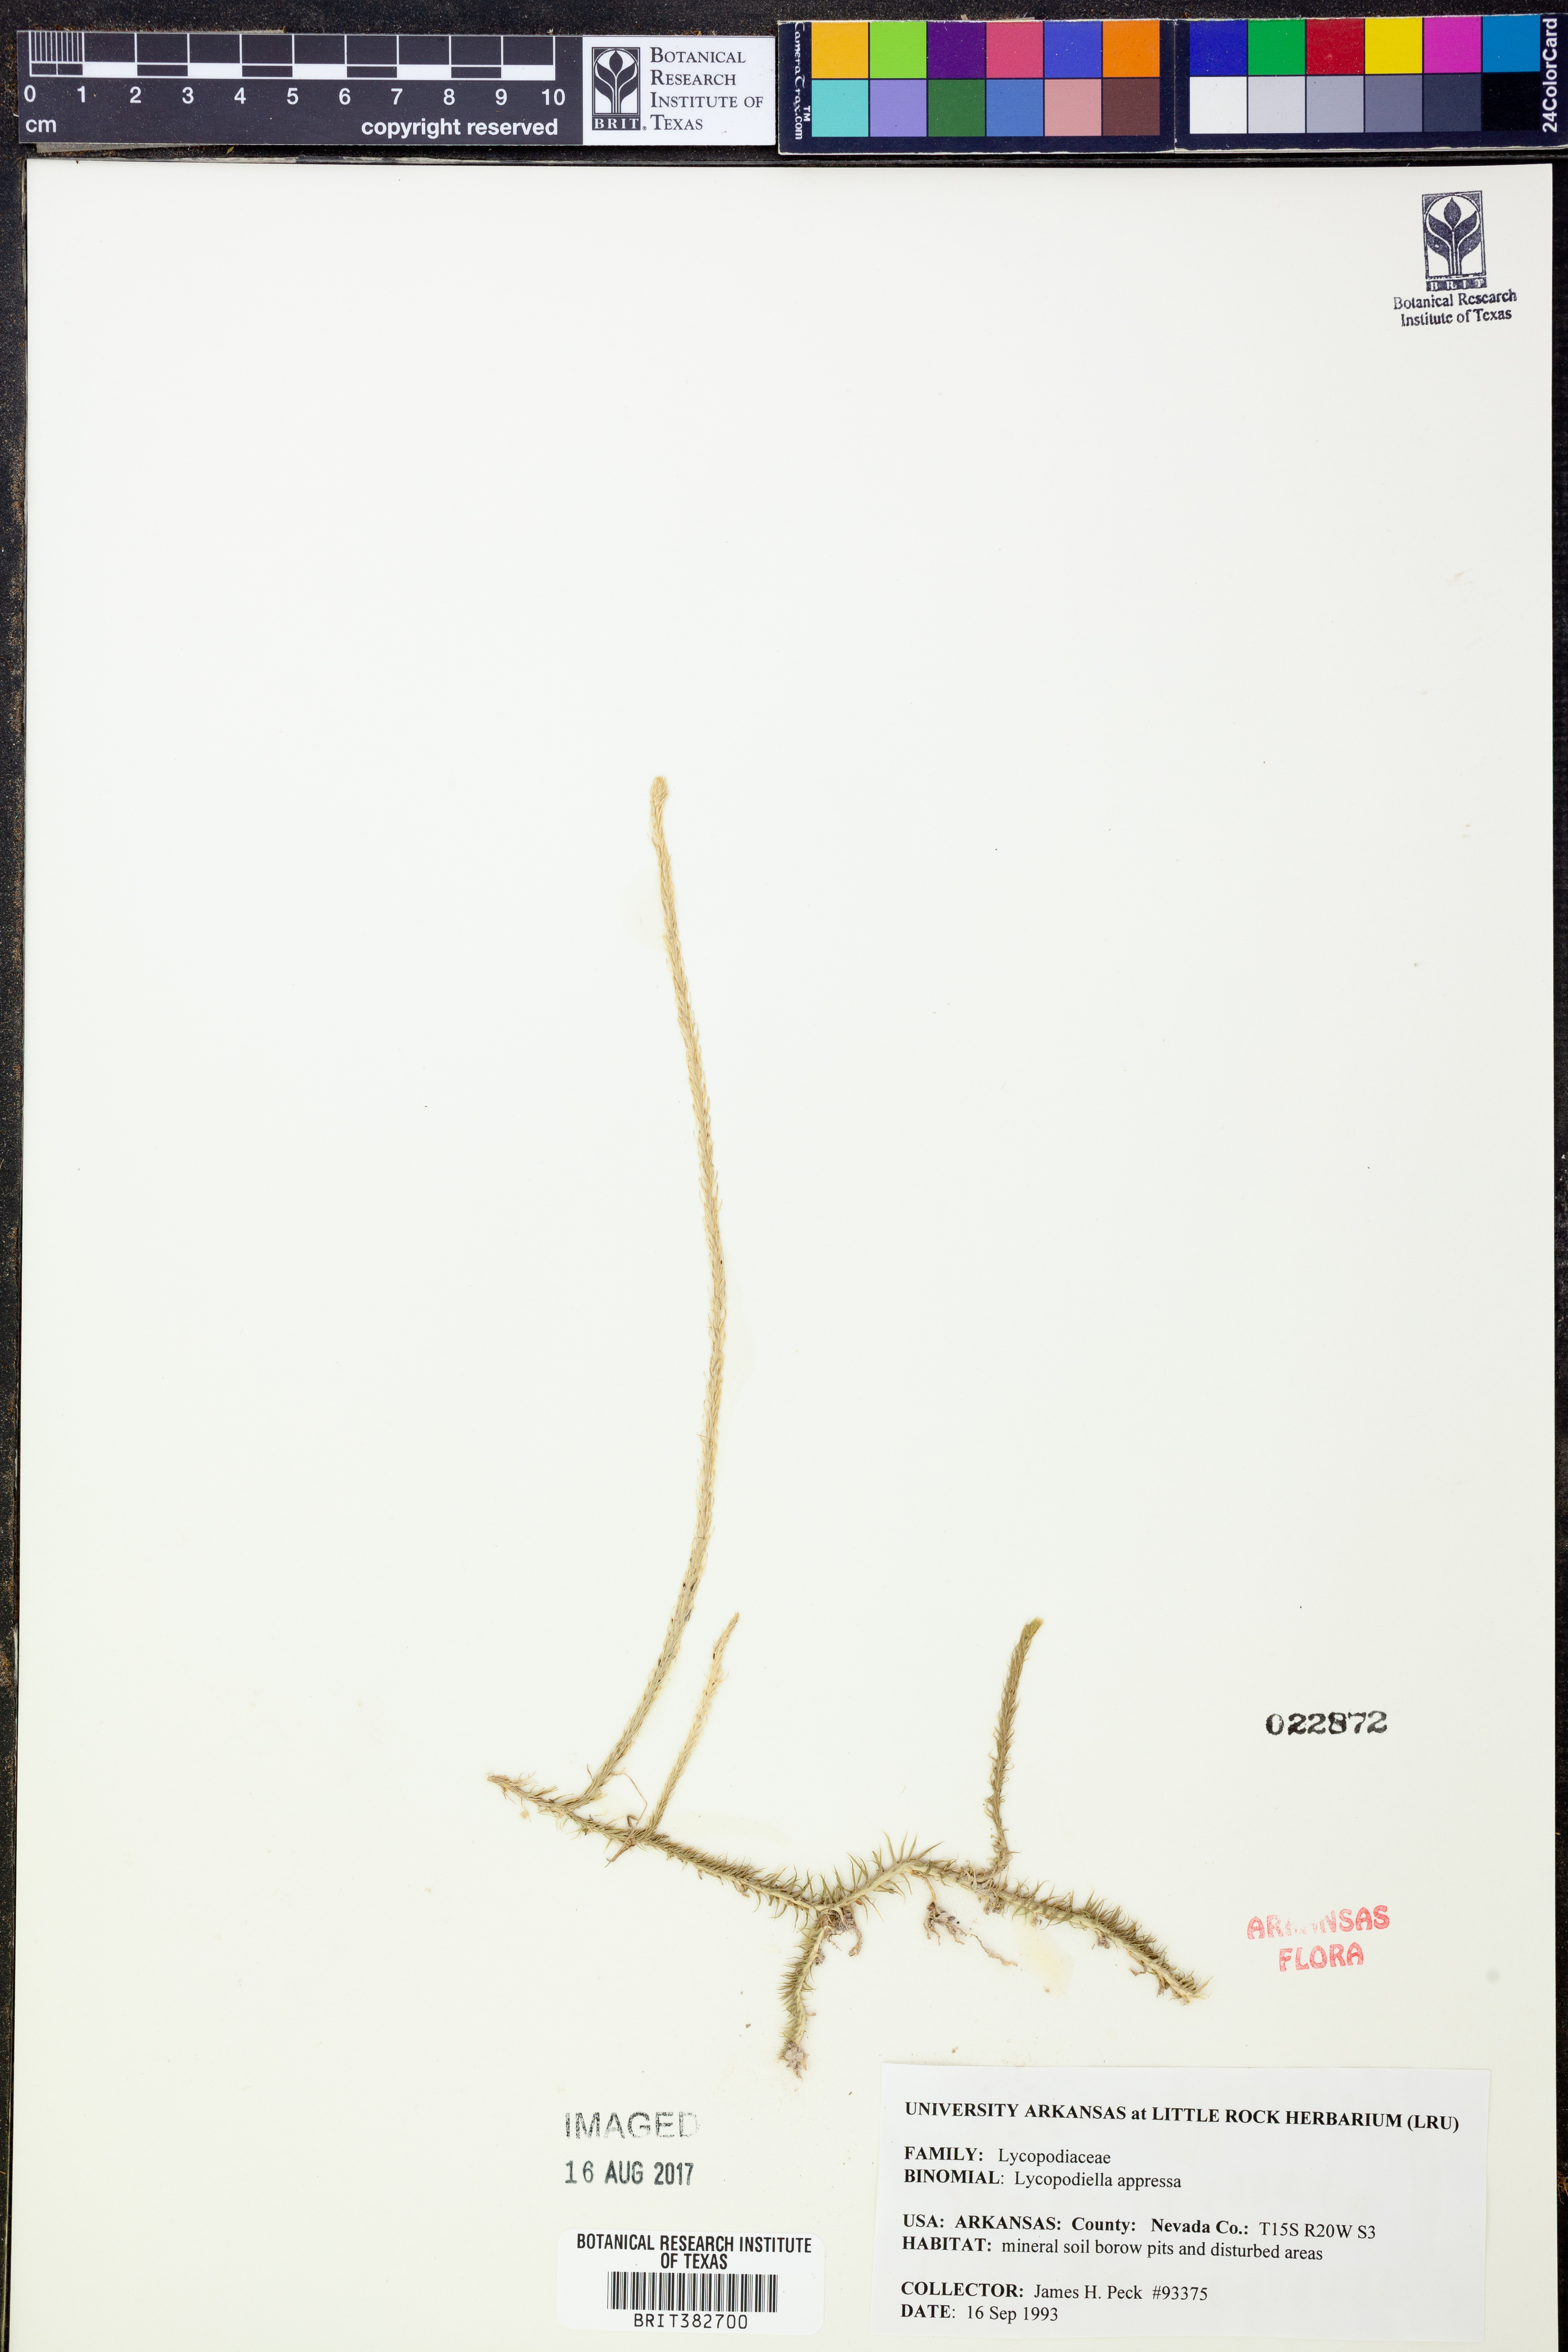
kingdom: Plantae
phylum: Tracheophyta
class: Lycopodiopsida
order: Lycopodiales
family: Lycopodiaceae
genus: Lycopodiella
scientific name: Lycopodiella appressa
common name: Appressed bog clubmoss
